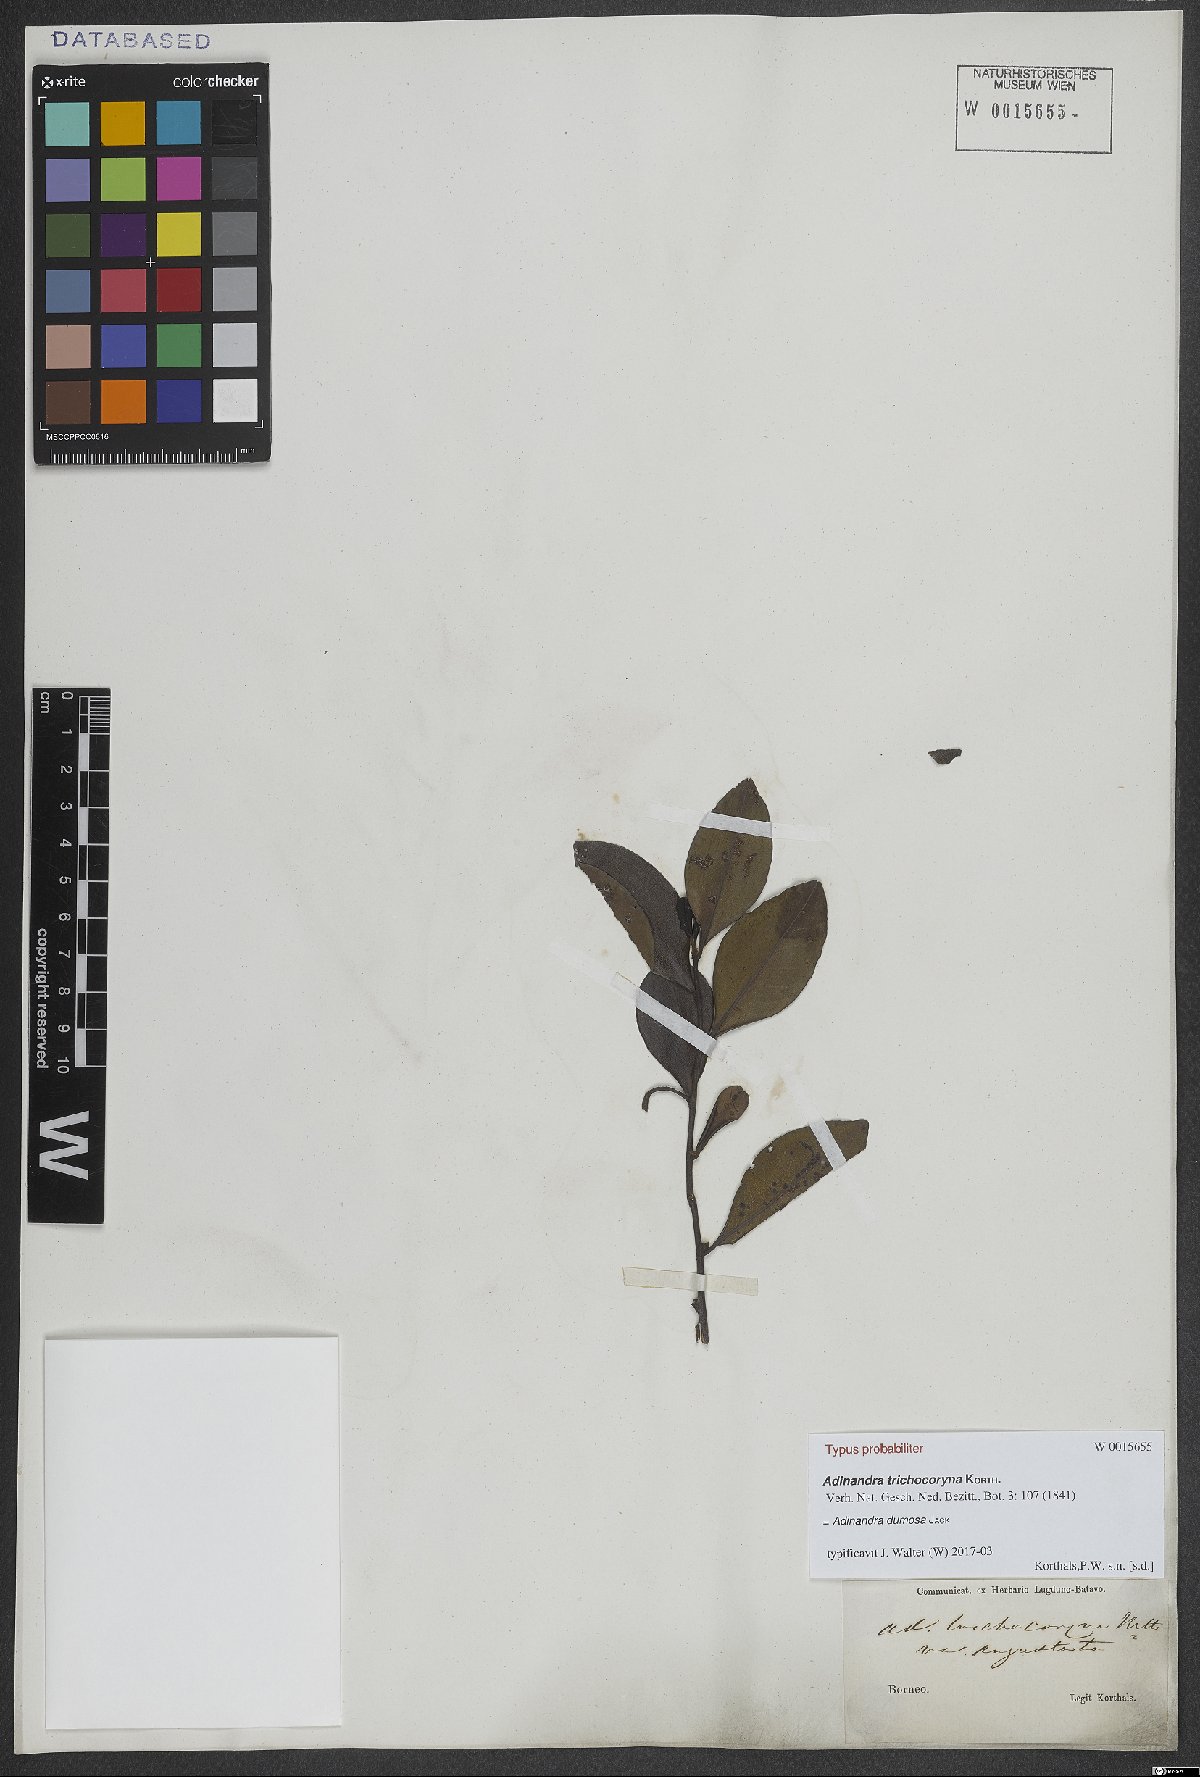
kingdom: Plantae
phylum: Tracheophyta
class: Magnoliopsida
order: Ericales
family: Pentaphylacaceae
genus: Adinandra
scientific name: Adinandra dumosa
